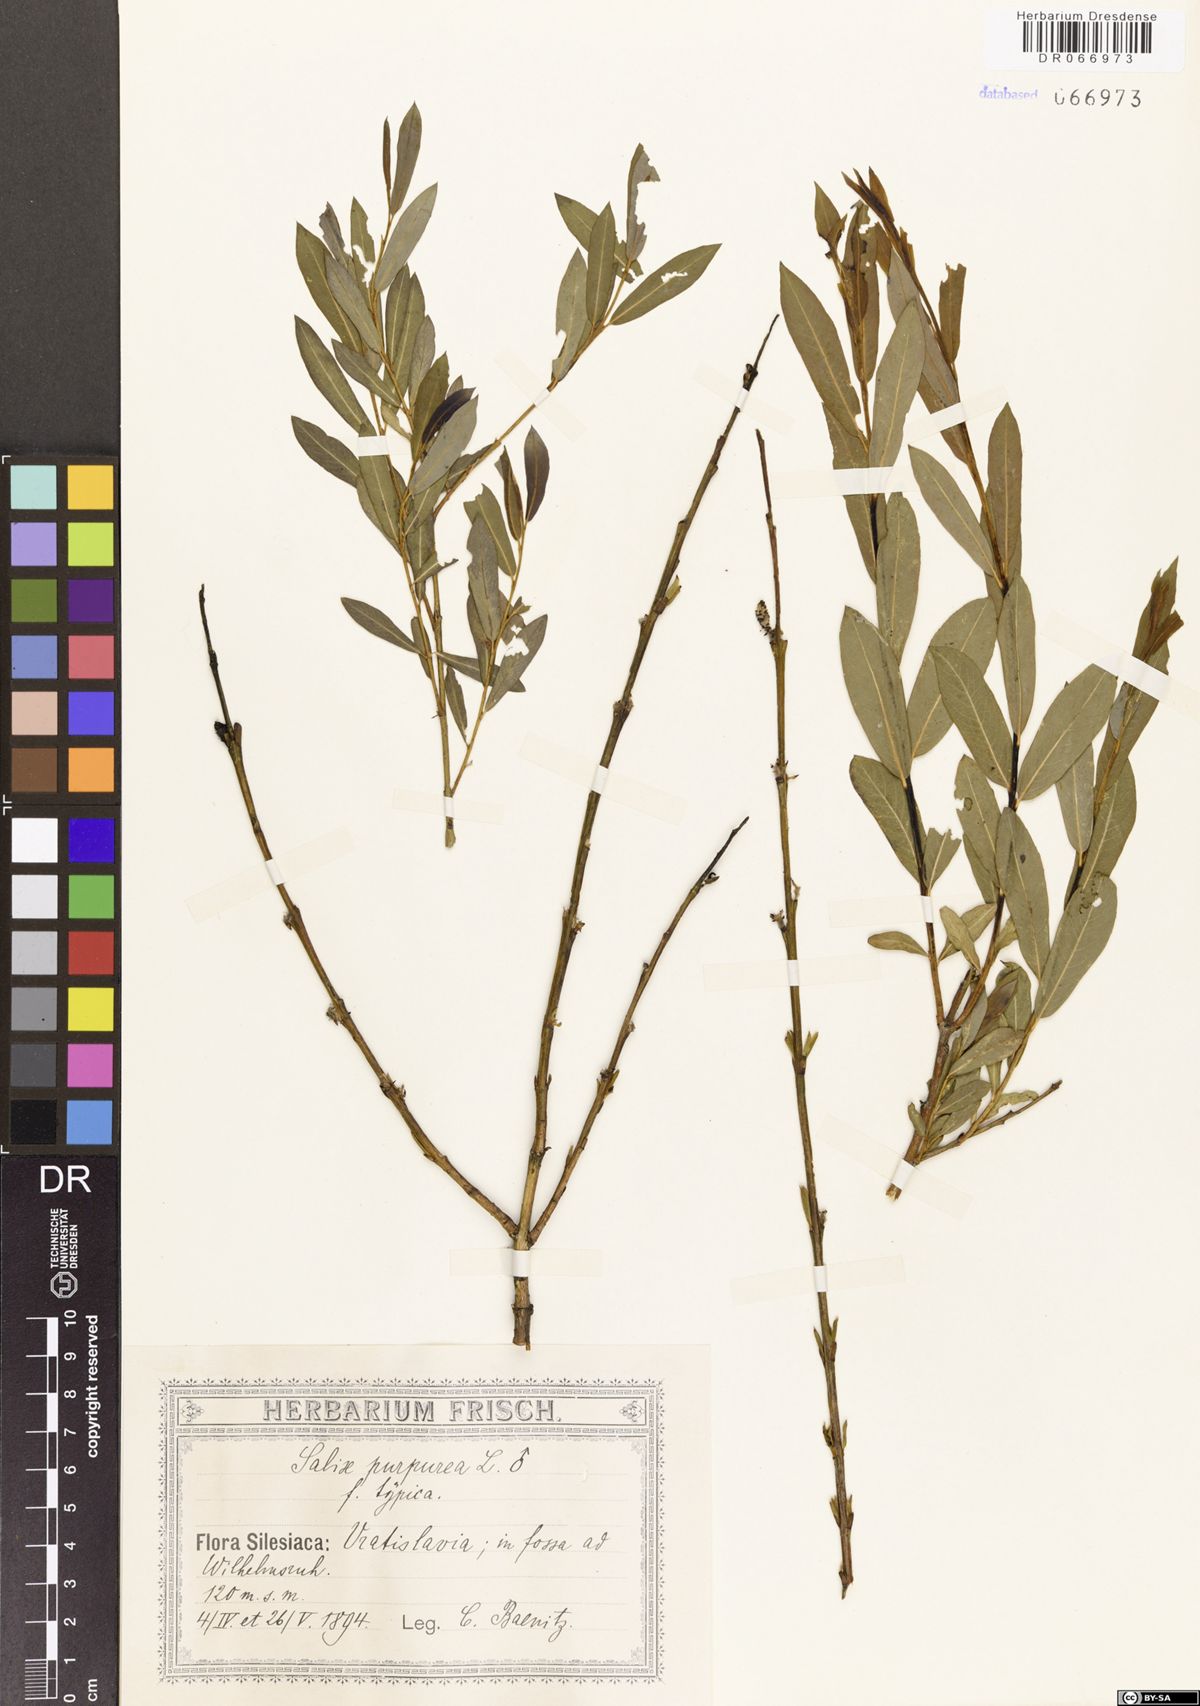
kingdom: Plantae
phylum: Tracheophyta
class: Magnoliopsida
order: Malpighiales
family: Salicaceae
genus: Salix
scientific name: Salix purpurea
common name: Purple willow
